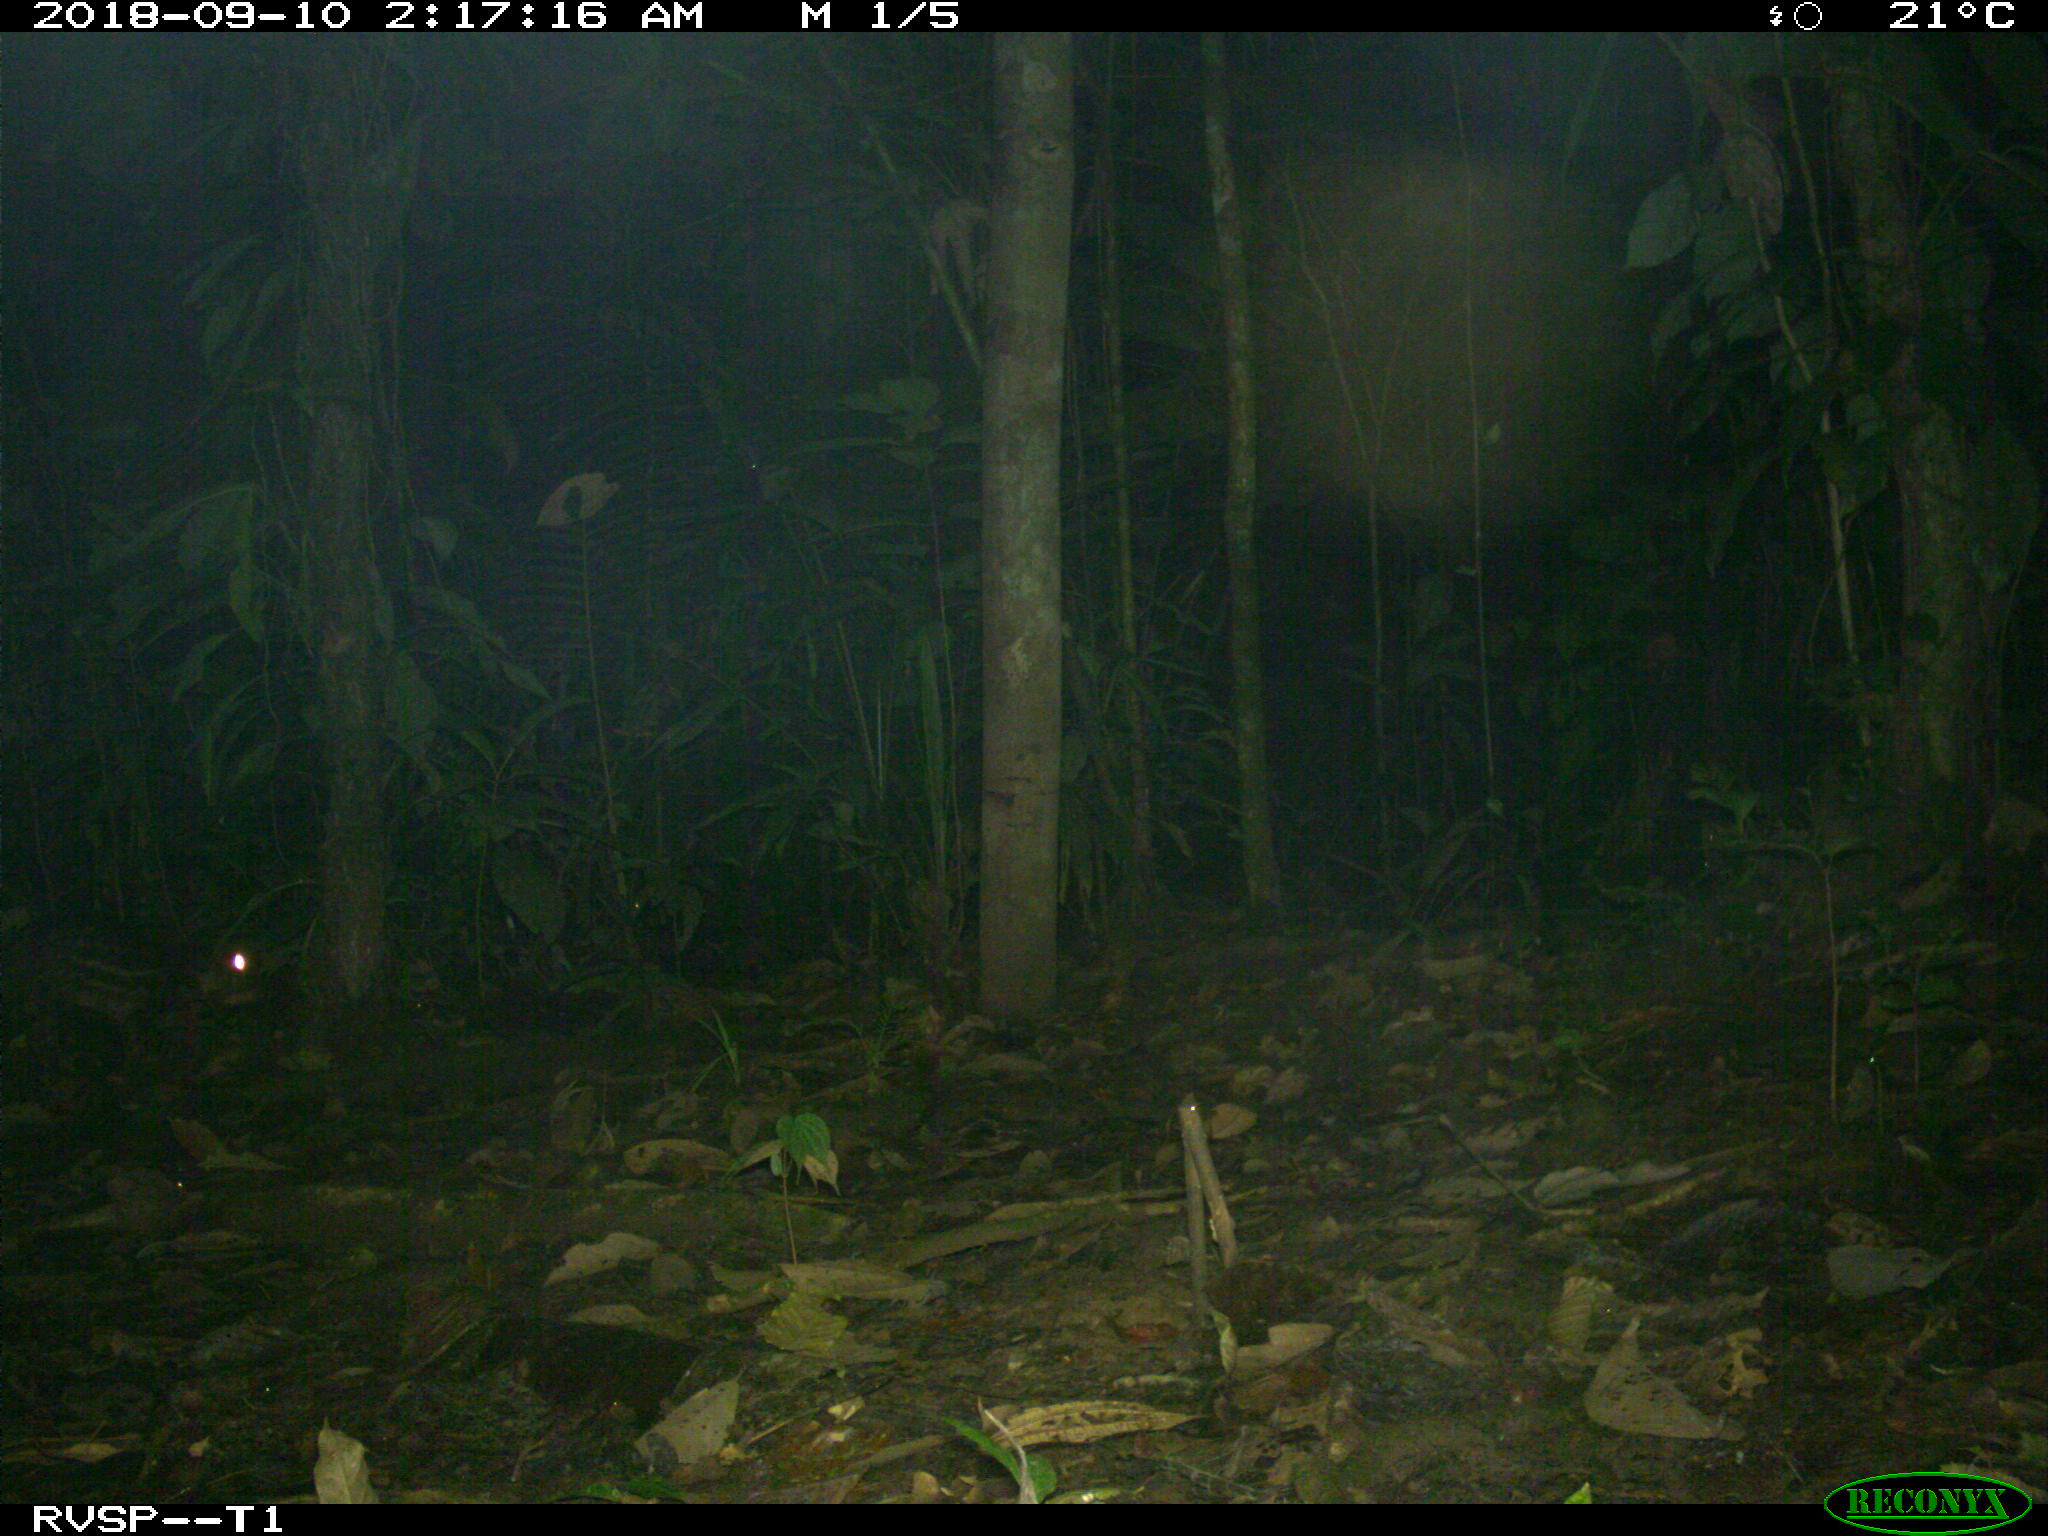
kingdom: Animalia
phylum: Chordata
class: Mammalia
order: Rodentia
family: Cuniculidae
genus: Cuniculus
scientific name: Cuniculus paca
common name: Lowland paca
